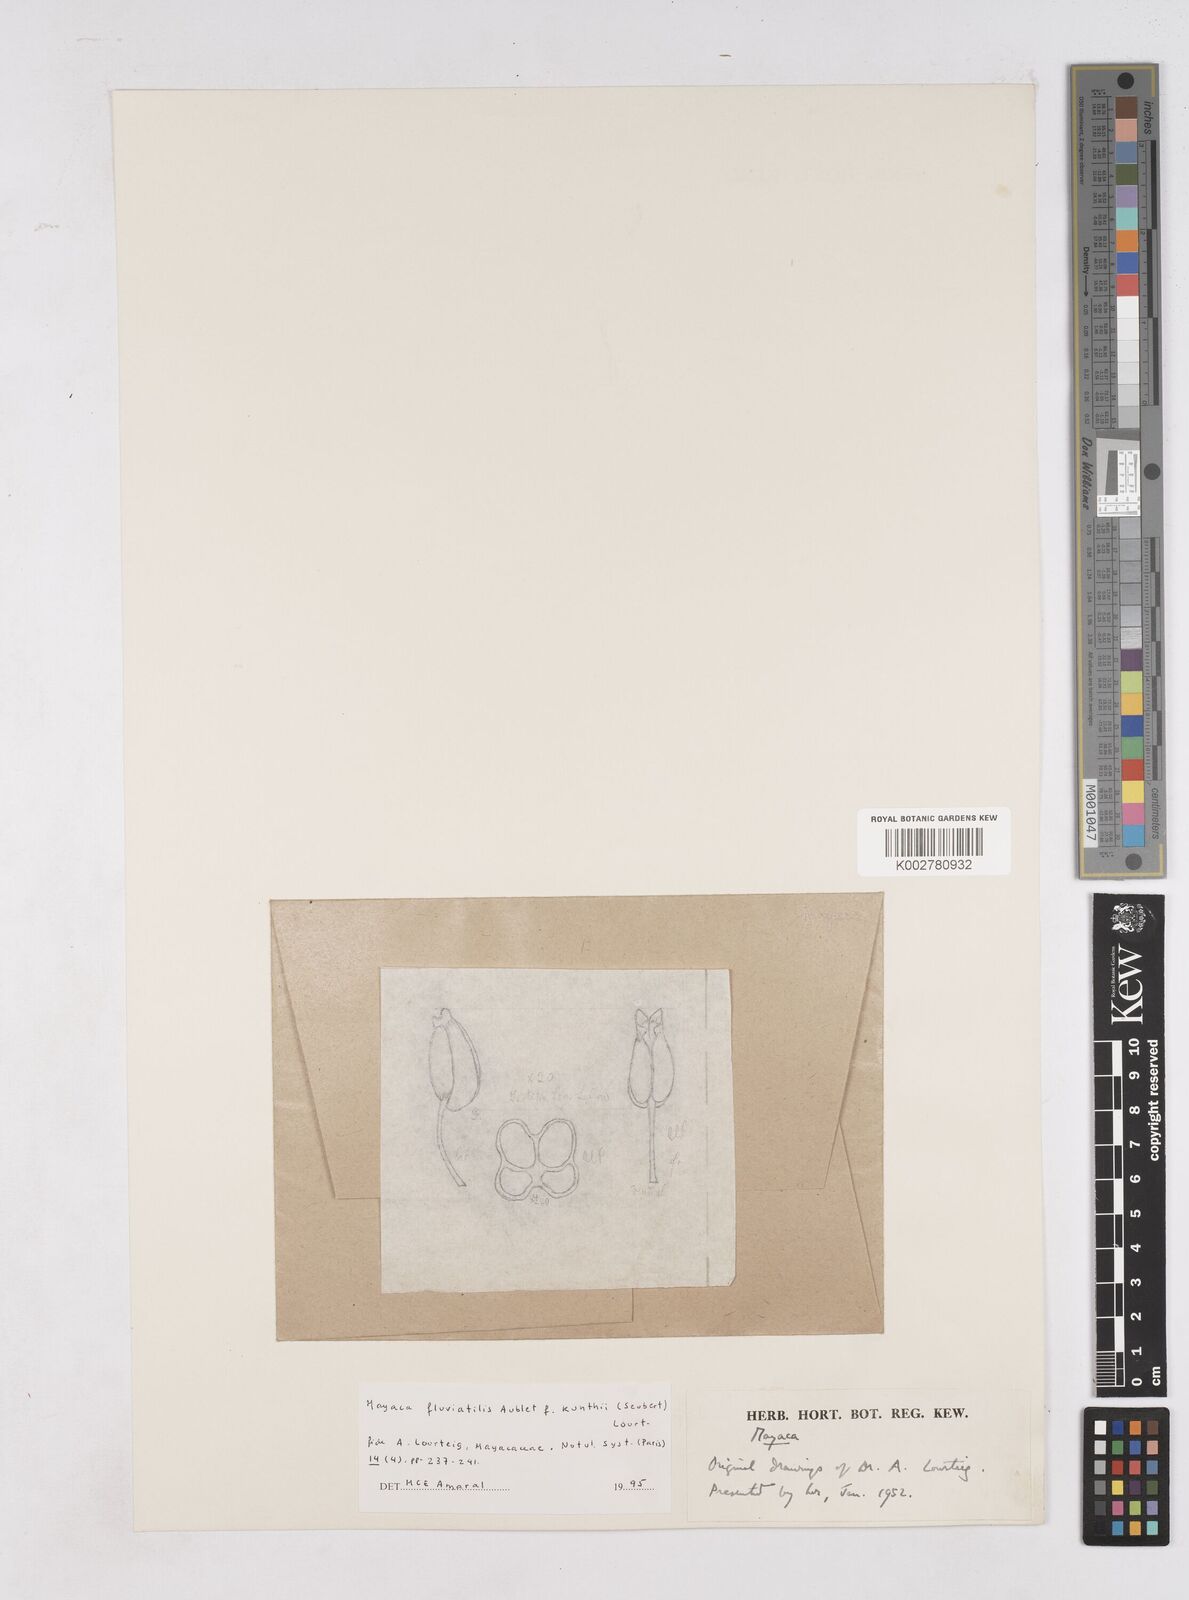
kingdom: Plantae
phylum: Tracheophyta
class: Liliopsida
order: Poales
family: Mayacaceae
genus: Mayaca
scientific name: Mayaca fluviatilis
